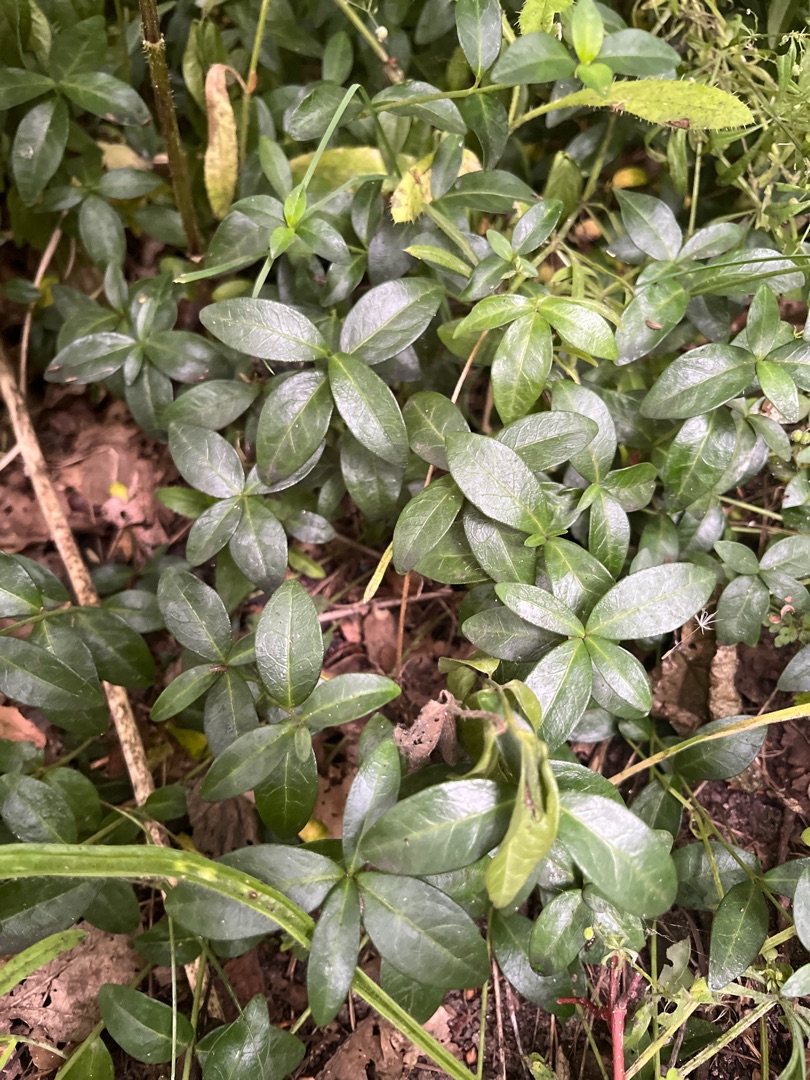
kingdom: Plantae
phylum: Tracheophyta
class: Magnoliopsida
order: Gentianales
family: Apocynaceae
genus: Vinca
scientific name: Vinca minor
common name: Liden singrøn
